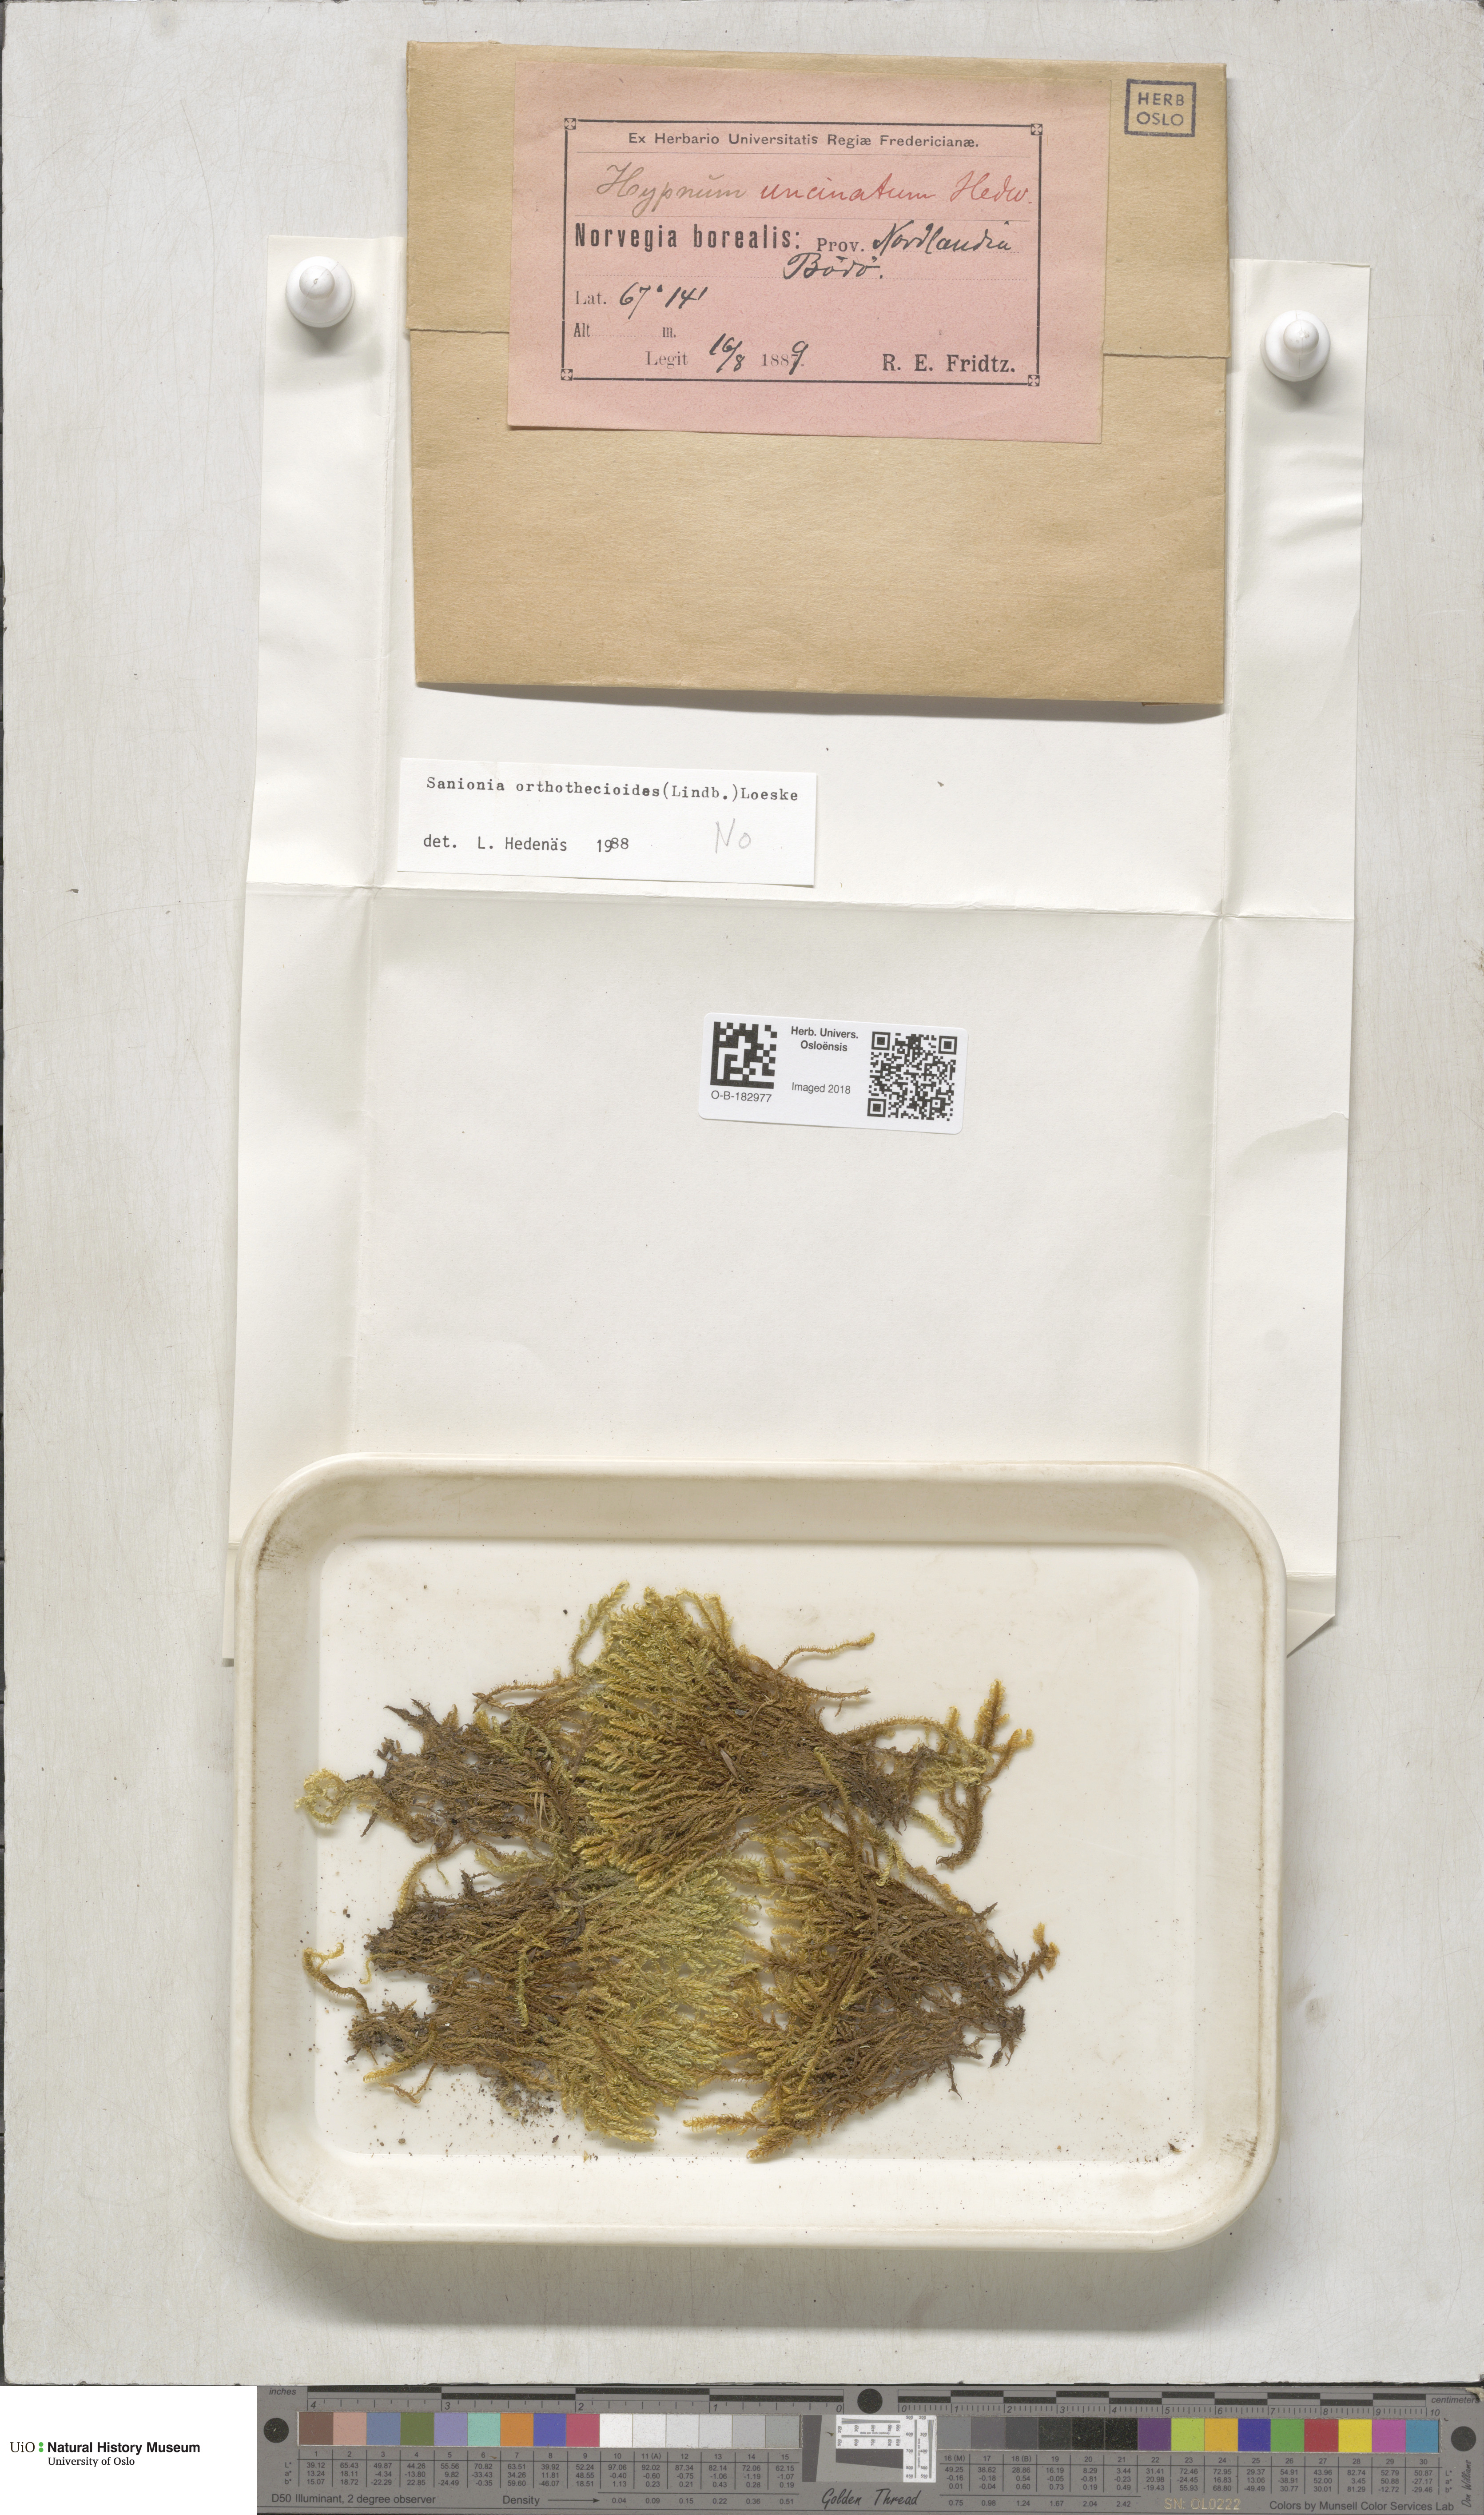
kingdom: Plantae
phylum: Bryophyta
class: Bryopsida
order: Hypnales
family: Scorpidiaceae
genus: Sanionia
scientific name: Sanionia orthothecioides
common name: Coastal hook moss
